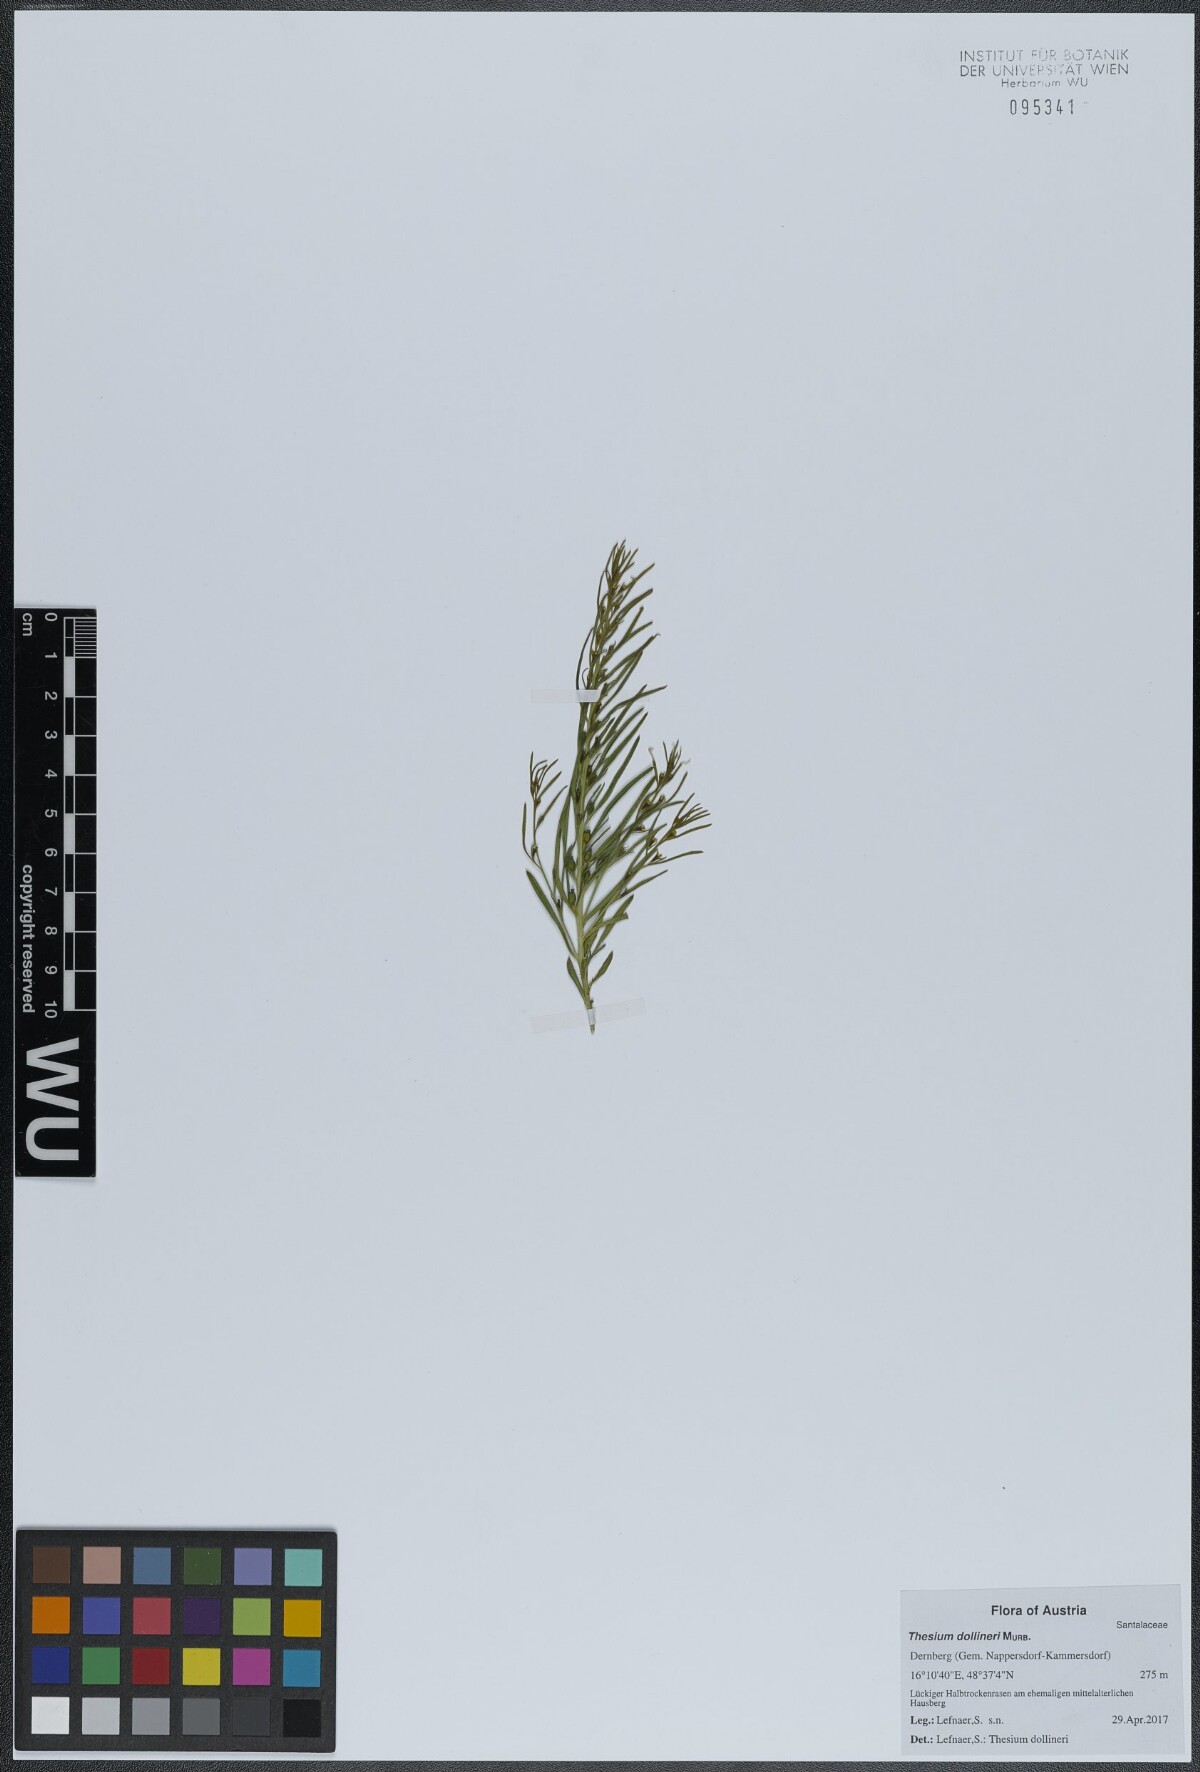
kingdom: Plantae
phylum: Tracheophyta
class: Magnoliopsida
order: Santalales
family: Thesiaceae
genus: Thesium
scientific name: Thesium dollineri
